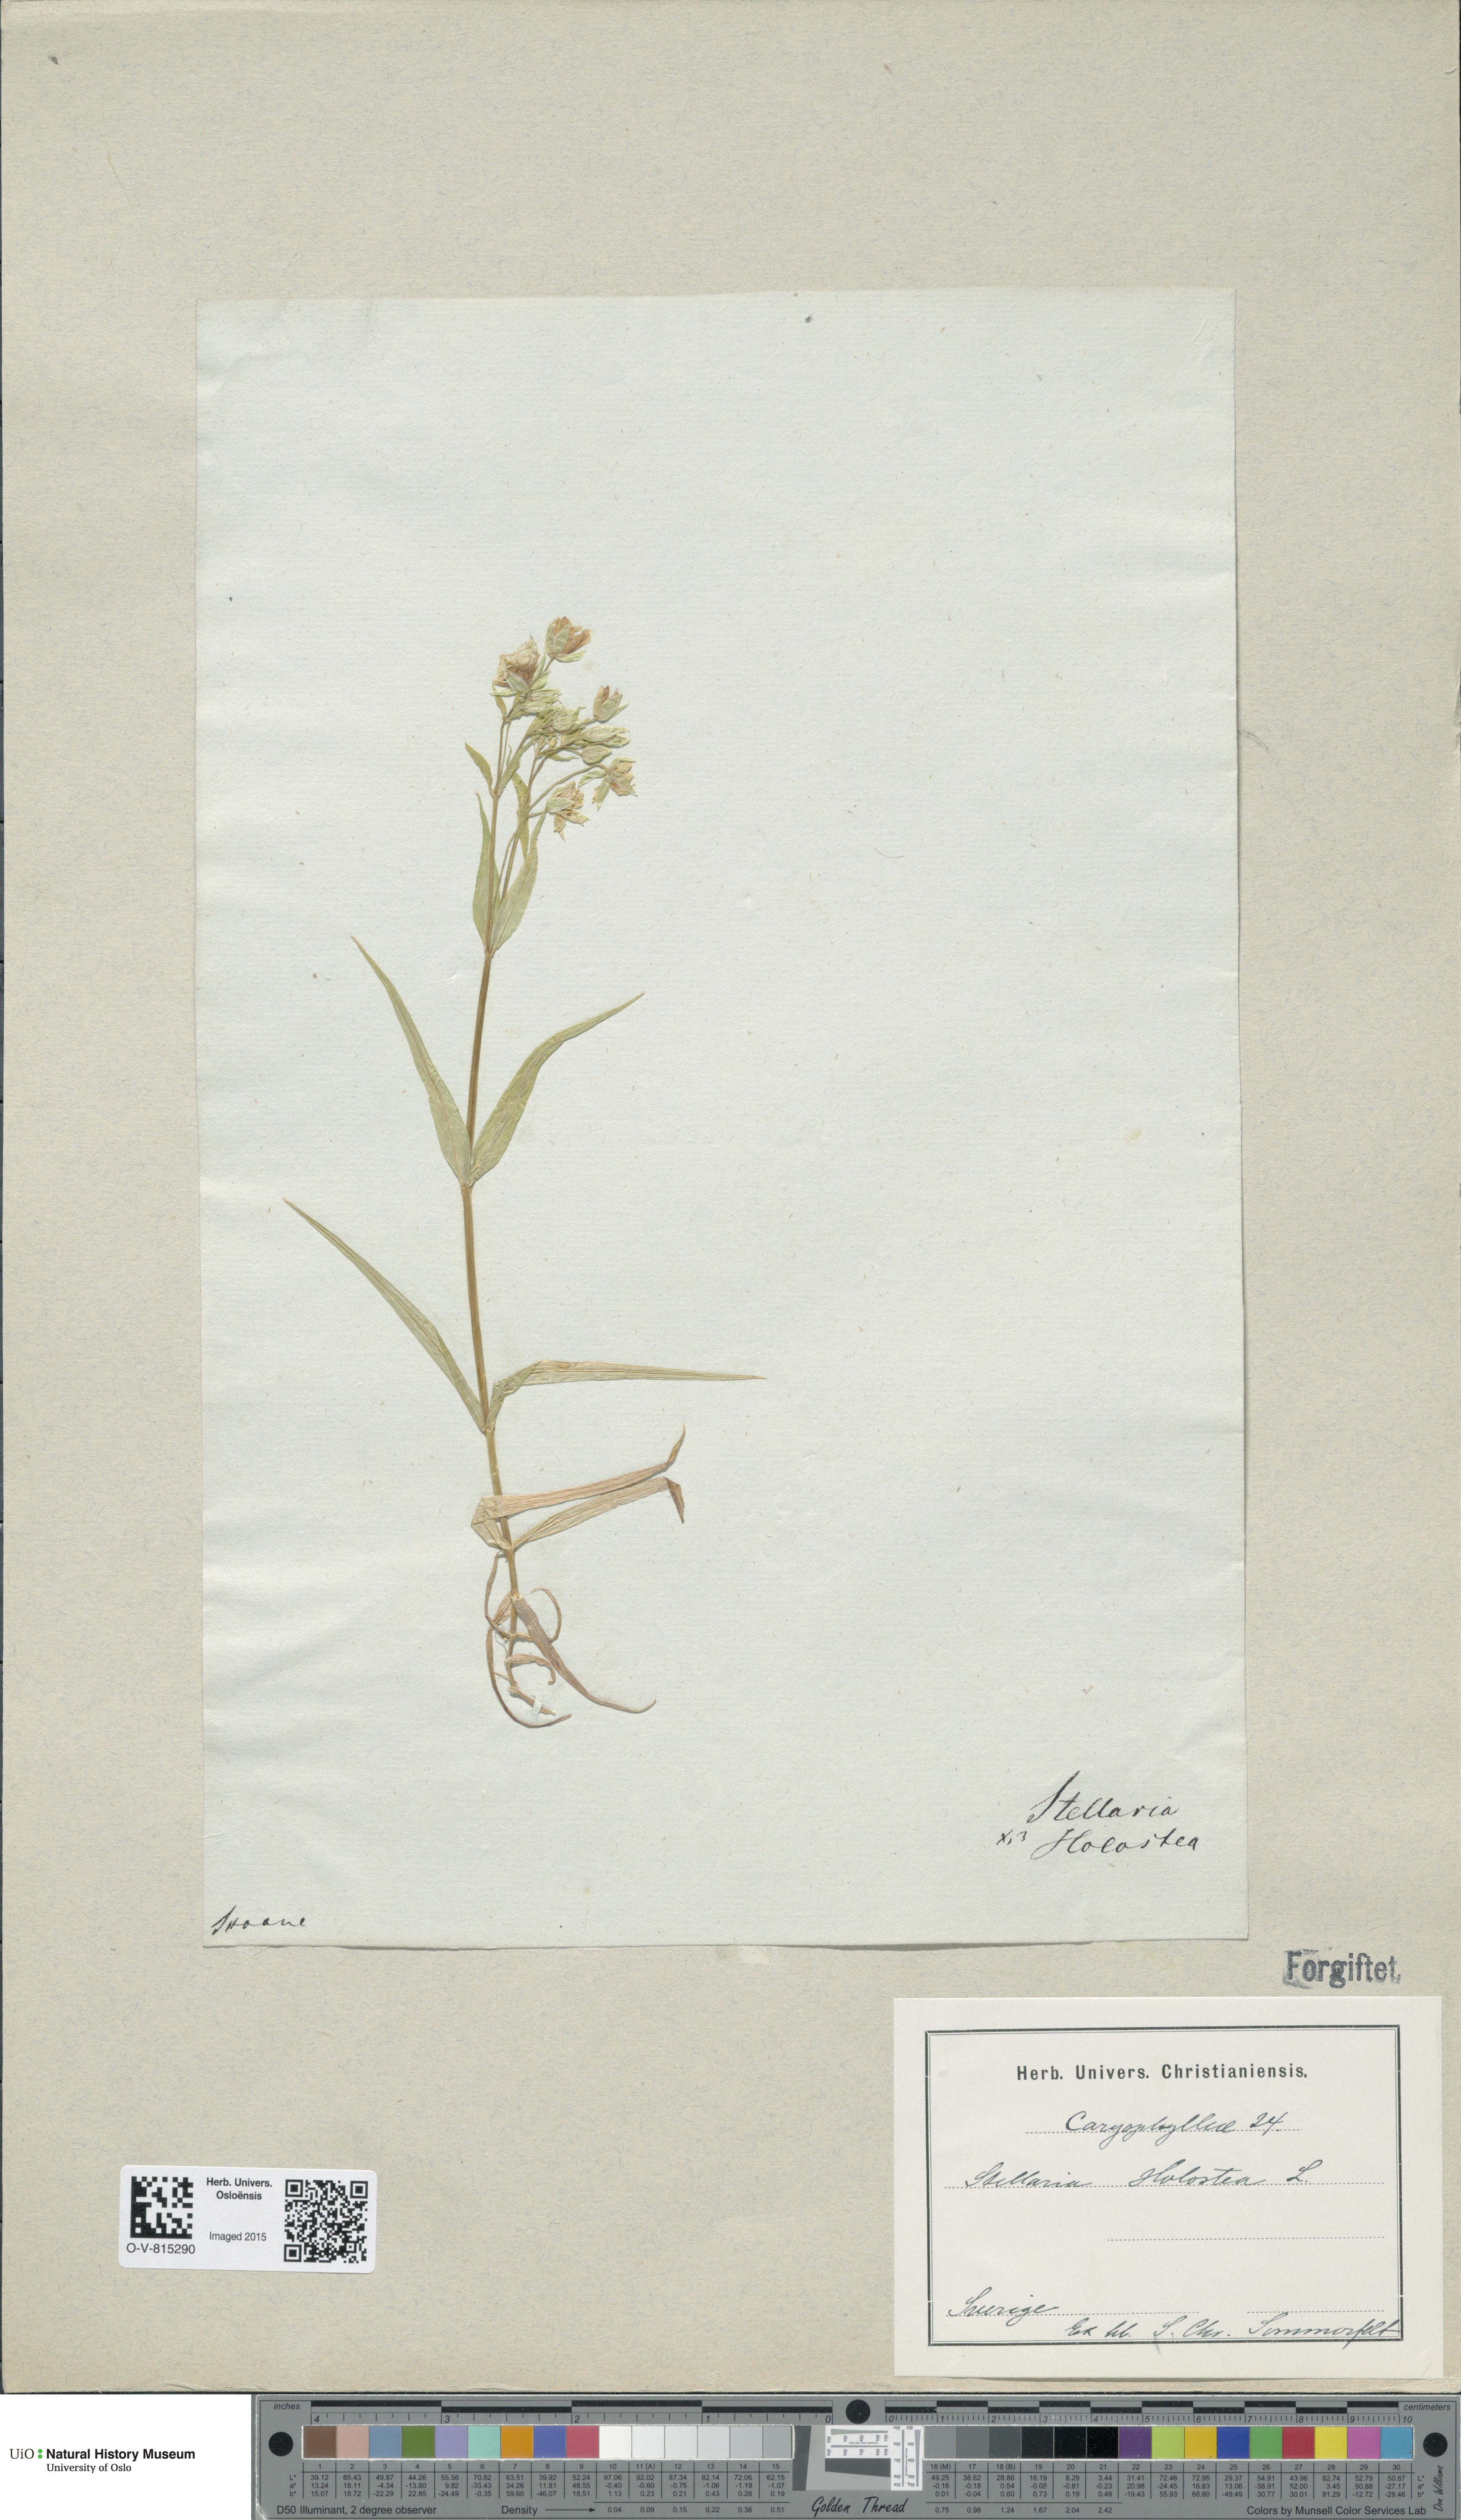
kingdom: Plantae
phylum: Tracheophyta
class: Magnoliopsida
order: Caryophyllales
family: Caryophyllaceae
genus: Rabelera
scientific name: Rabelera holostea
